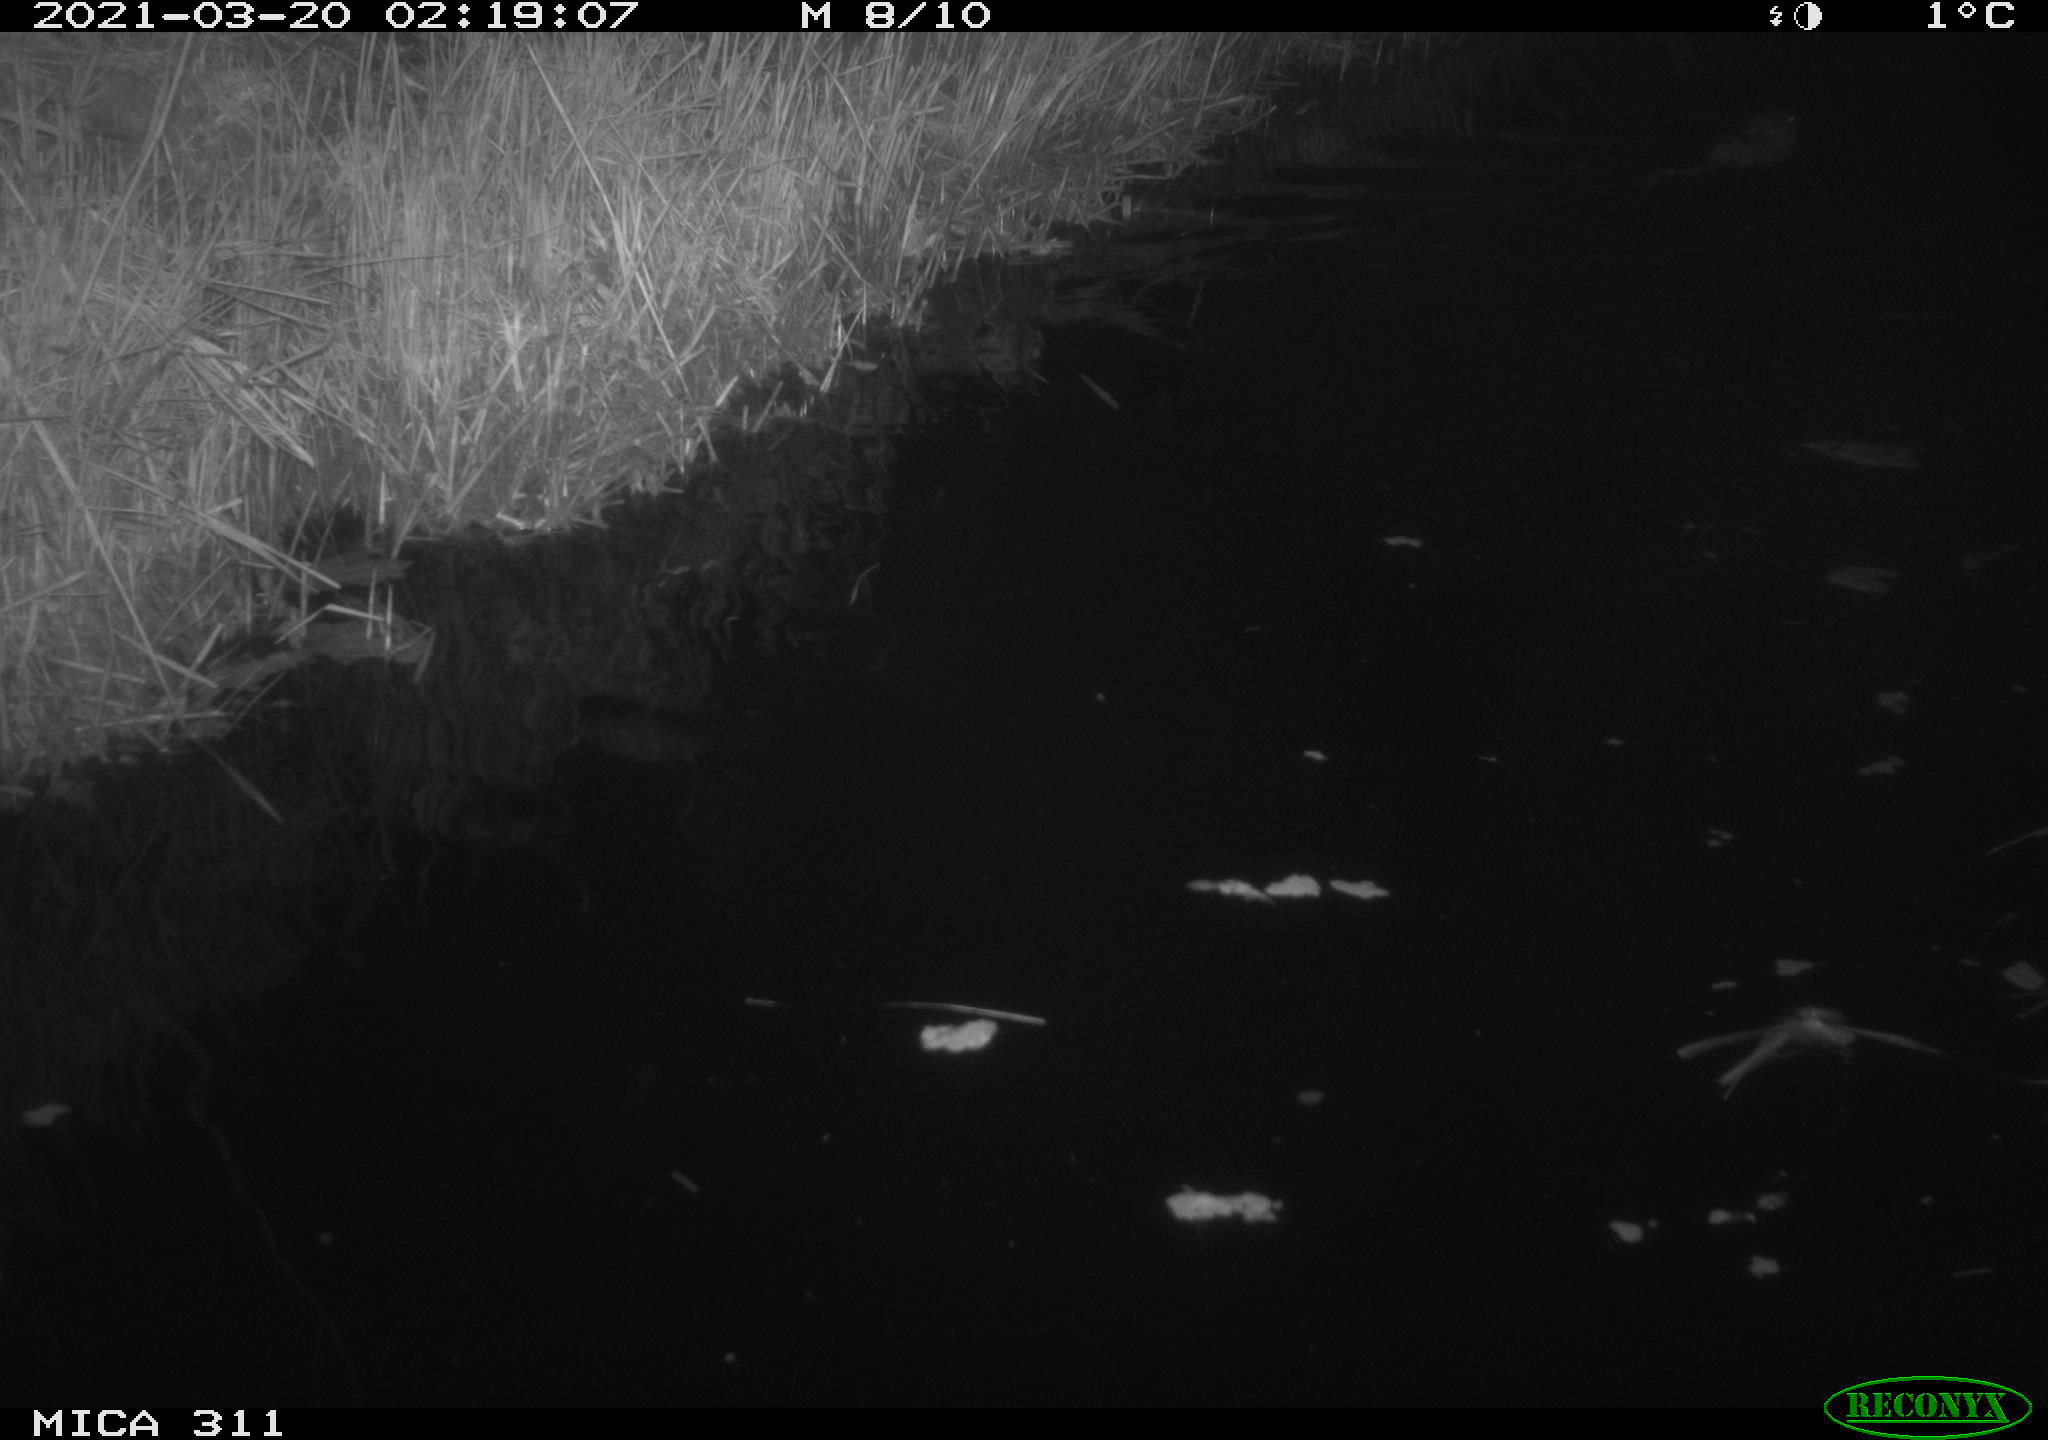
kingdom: Animalia
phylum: Chordata
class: Mammalia
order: Rodentia
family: Cricetidae
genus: Ondatra
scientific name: Ondatra zibethicus
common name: Muskrat
